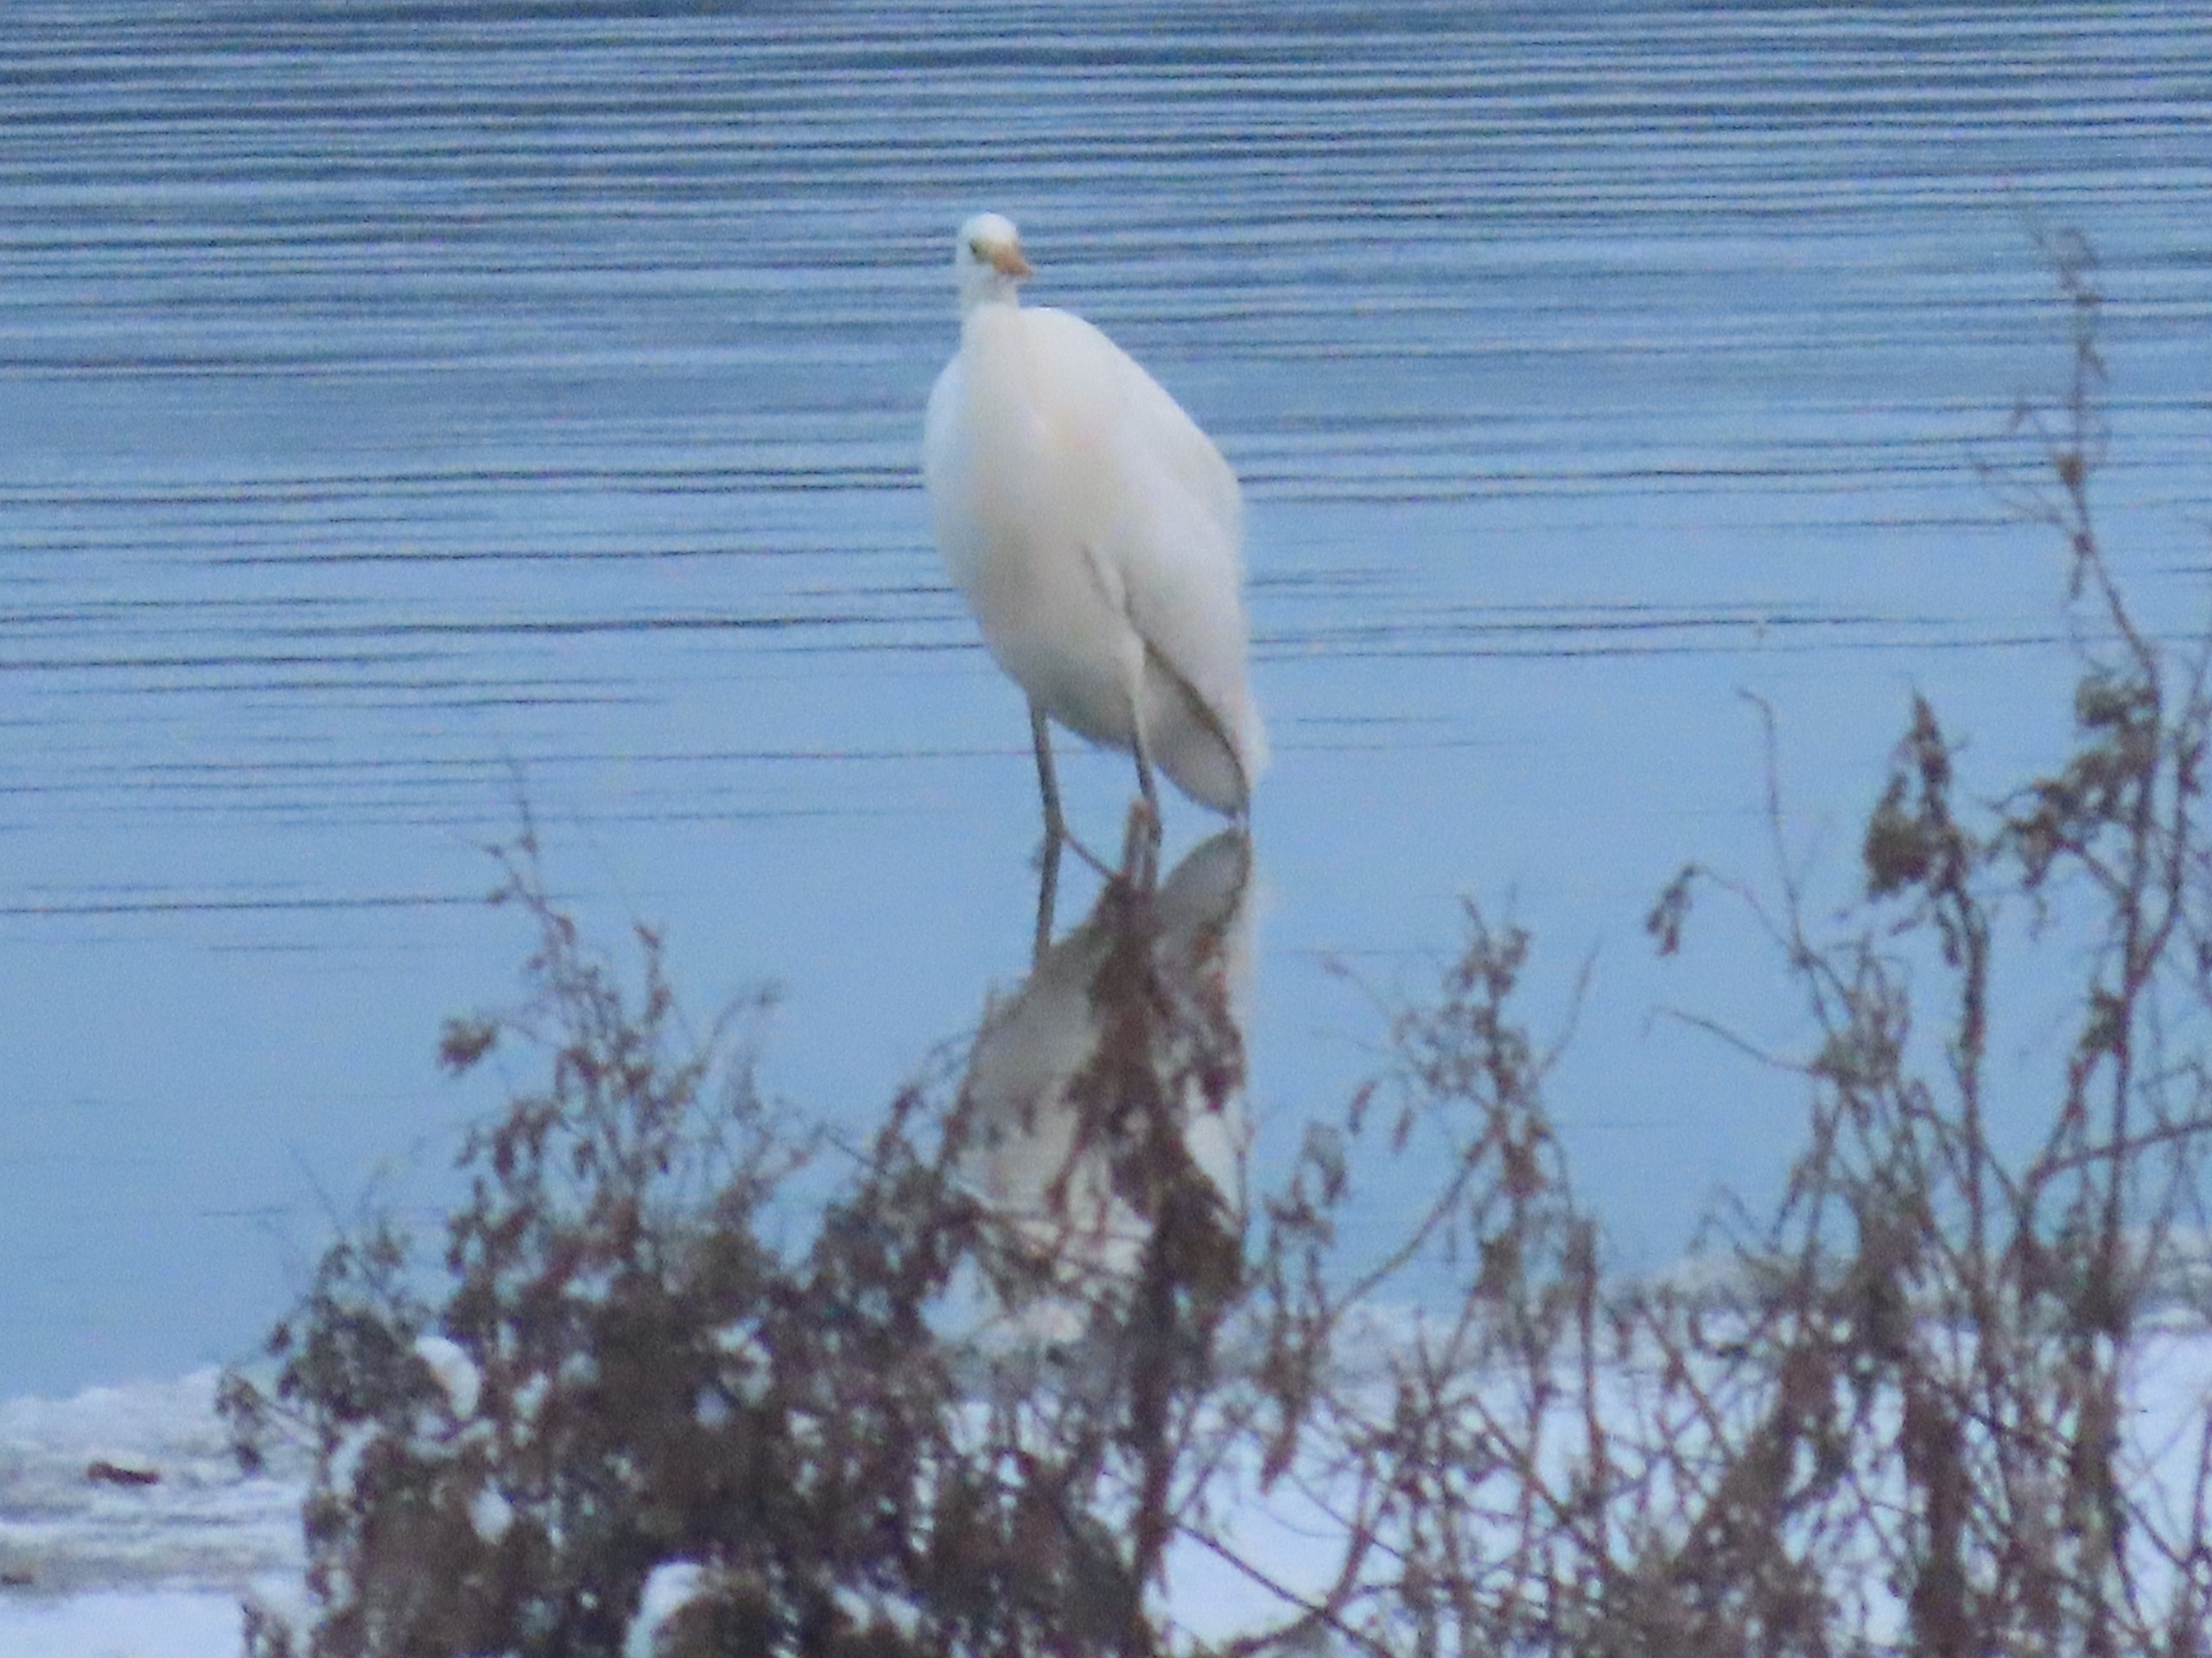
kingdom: Animalia
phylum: Chordata
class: Aves
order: Pelecaniformes
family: Ardeidae
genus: Ardea
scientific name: Ardea alba
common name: Sølvhejre
